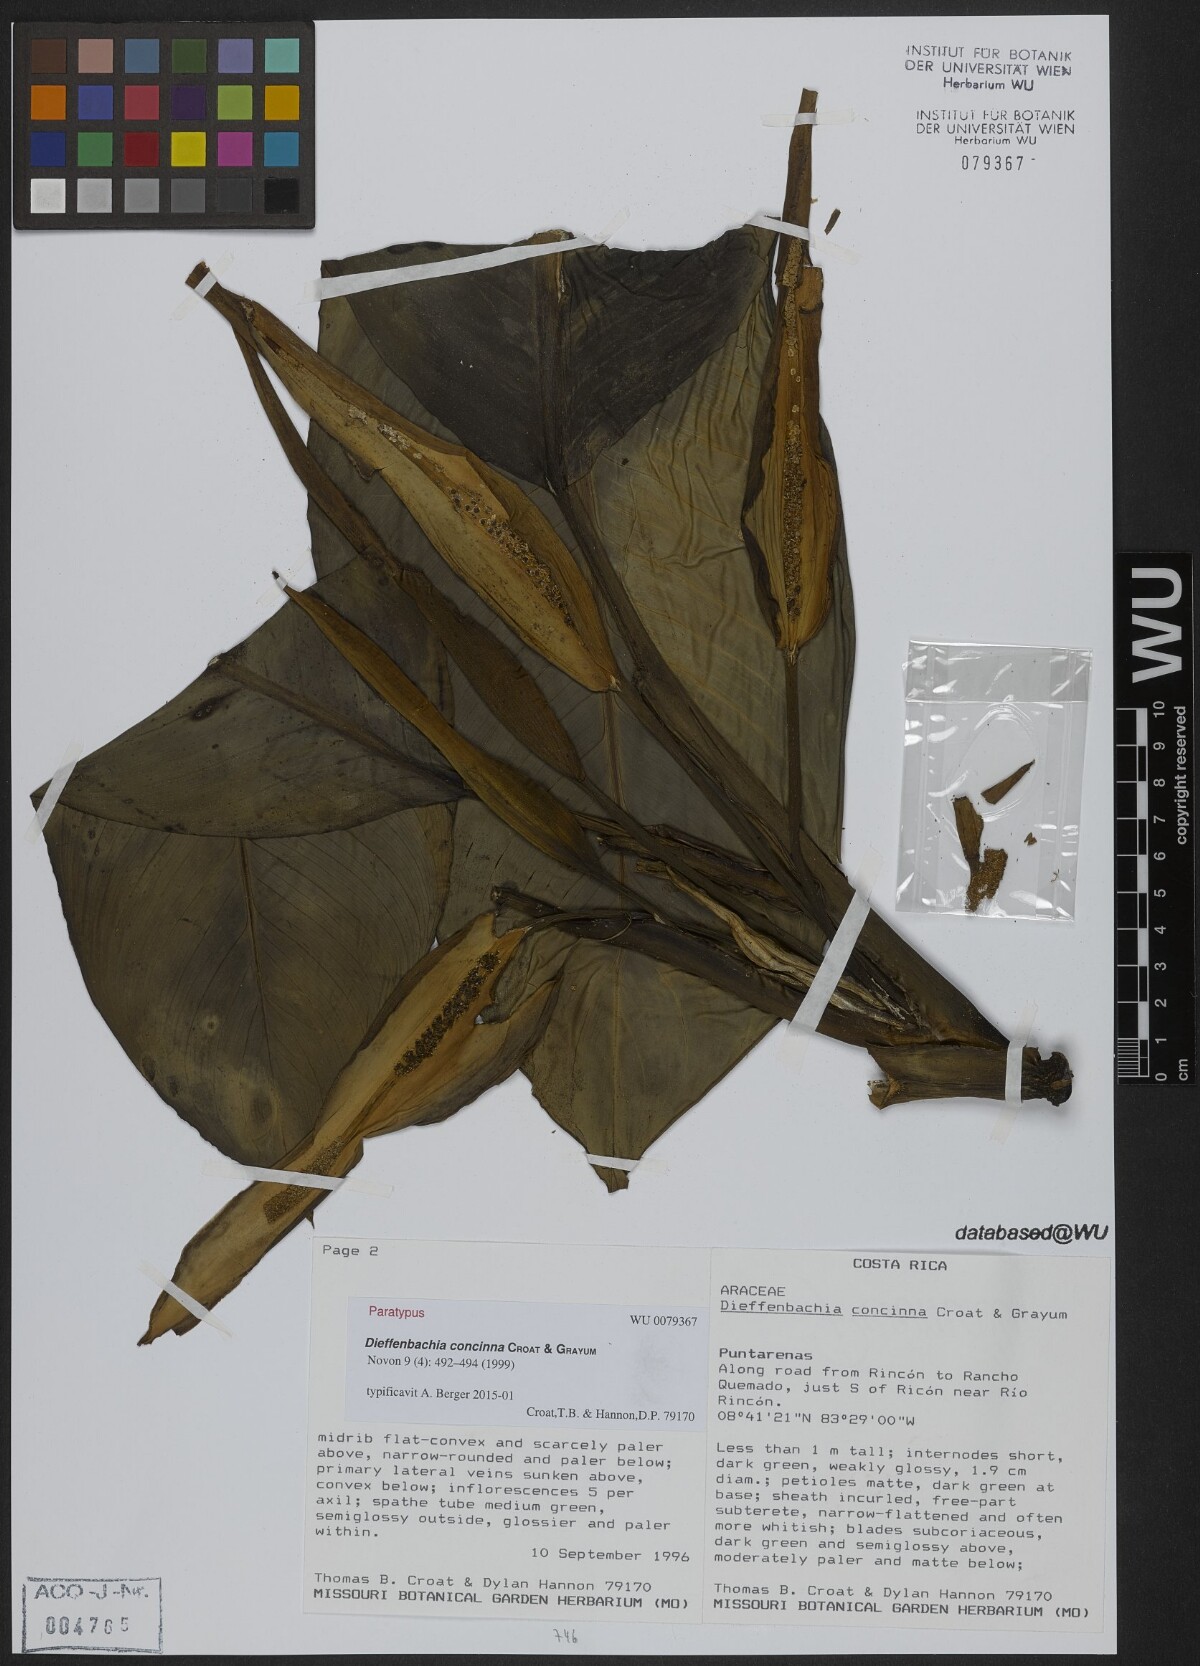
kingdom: Plantae
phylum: Tracheophyta
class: Liliopsida
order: Alismatales
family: Araceae
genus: Dieffenbachia
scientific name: Dieffenbachia concinna
